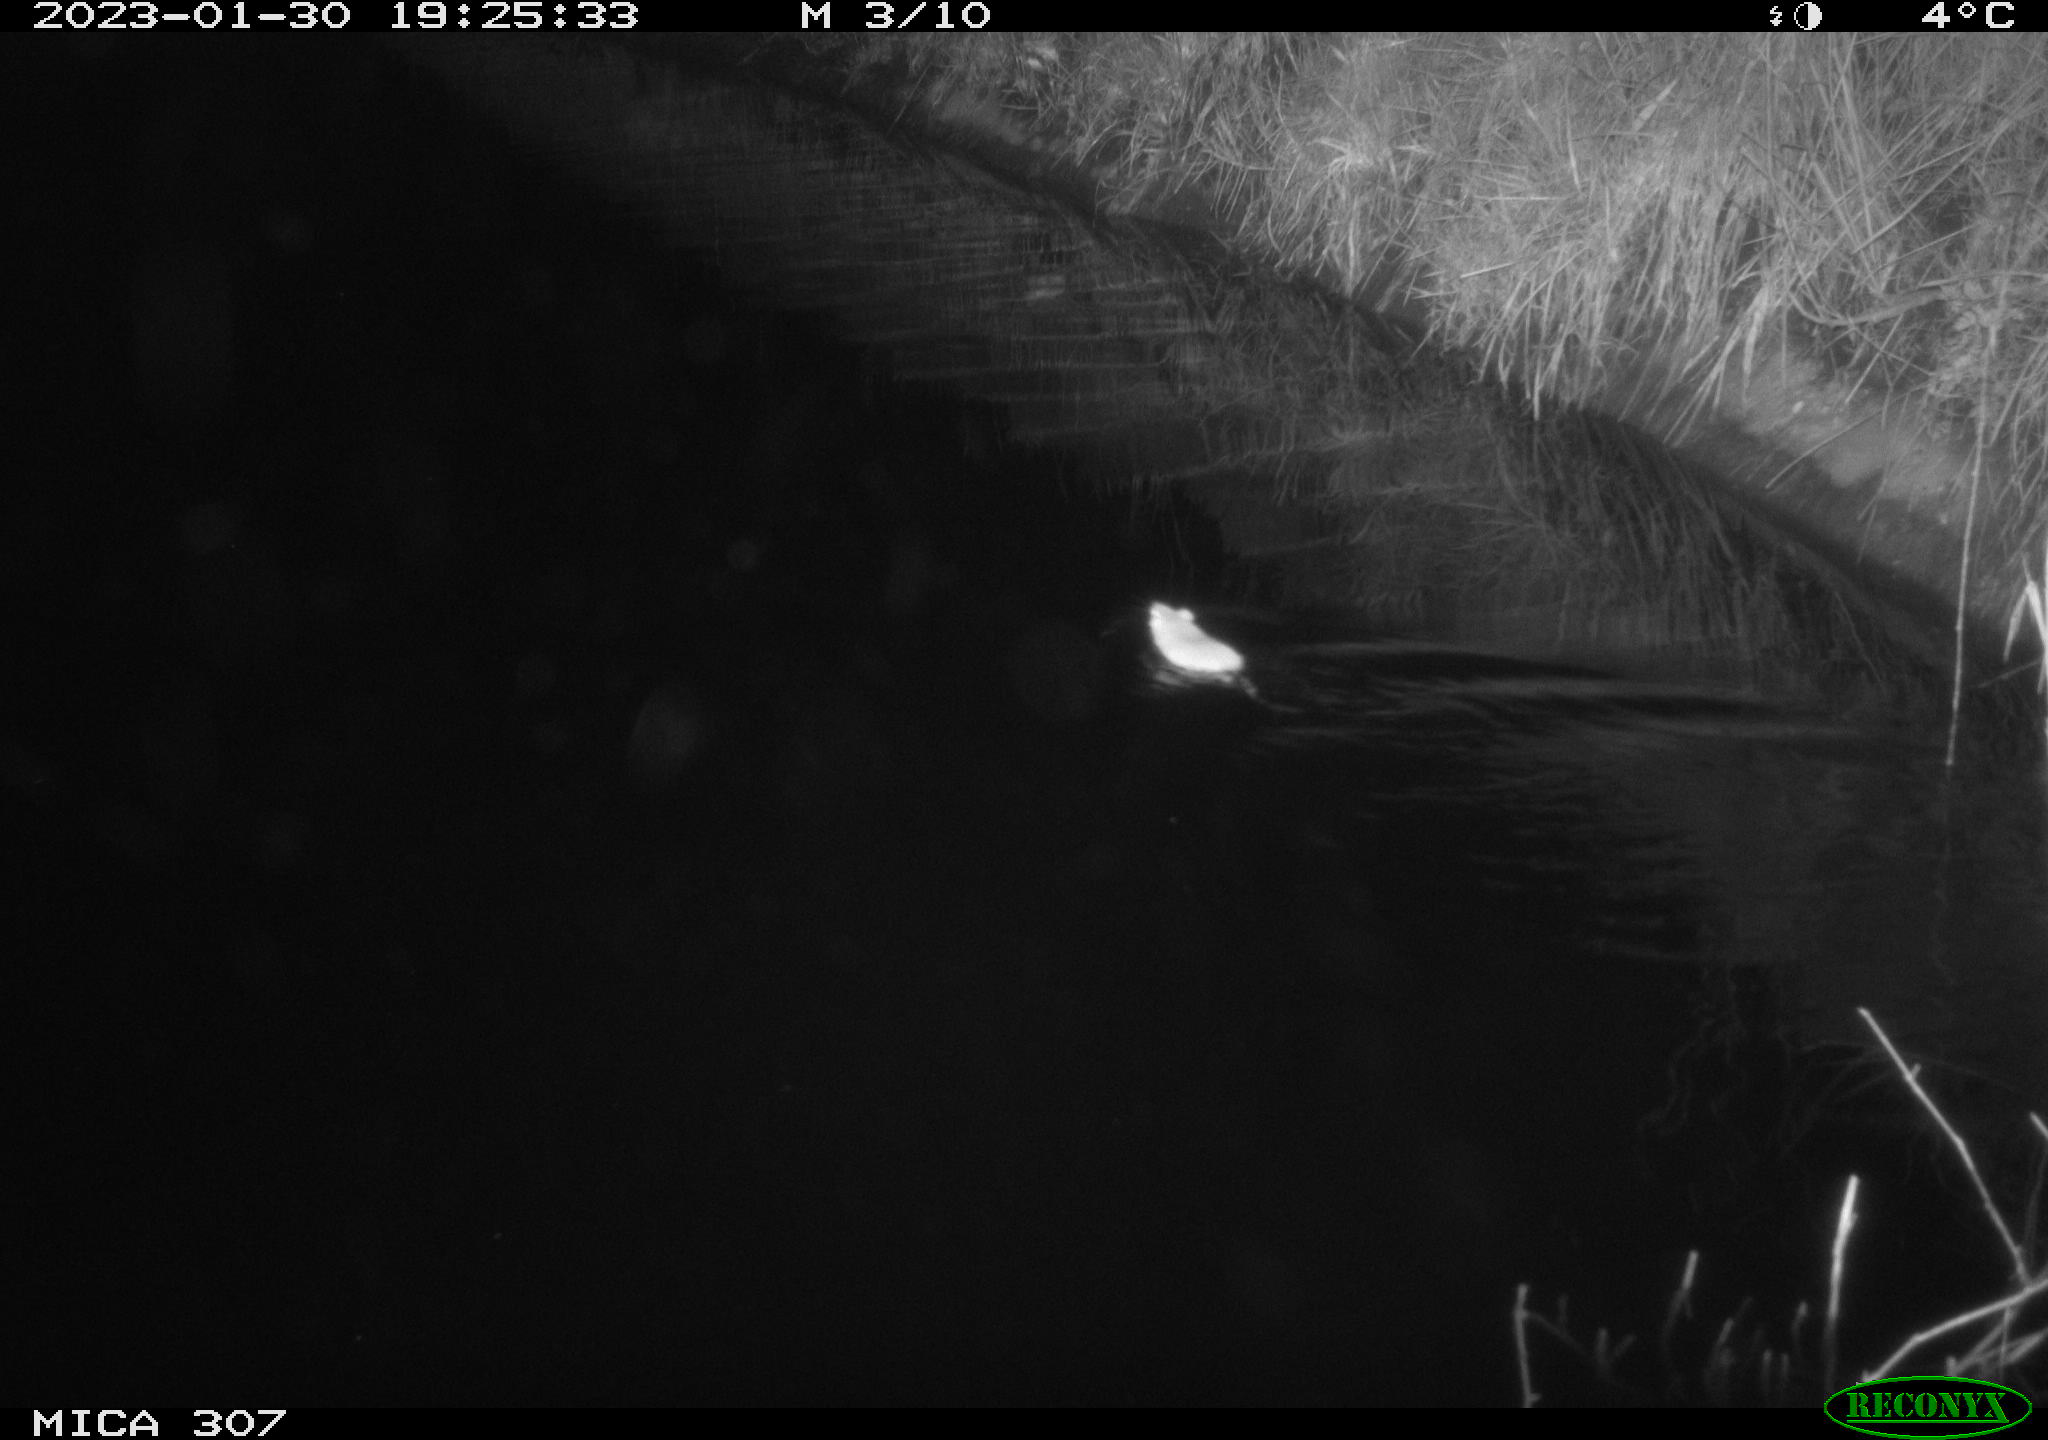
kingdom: Animalia
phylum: Chordata
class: Mammalia
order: Rodentia
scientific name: Rodentia
